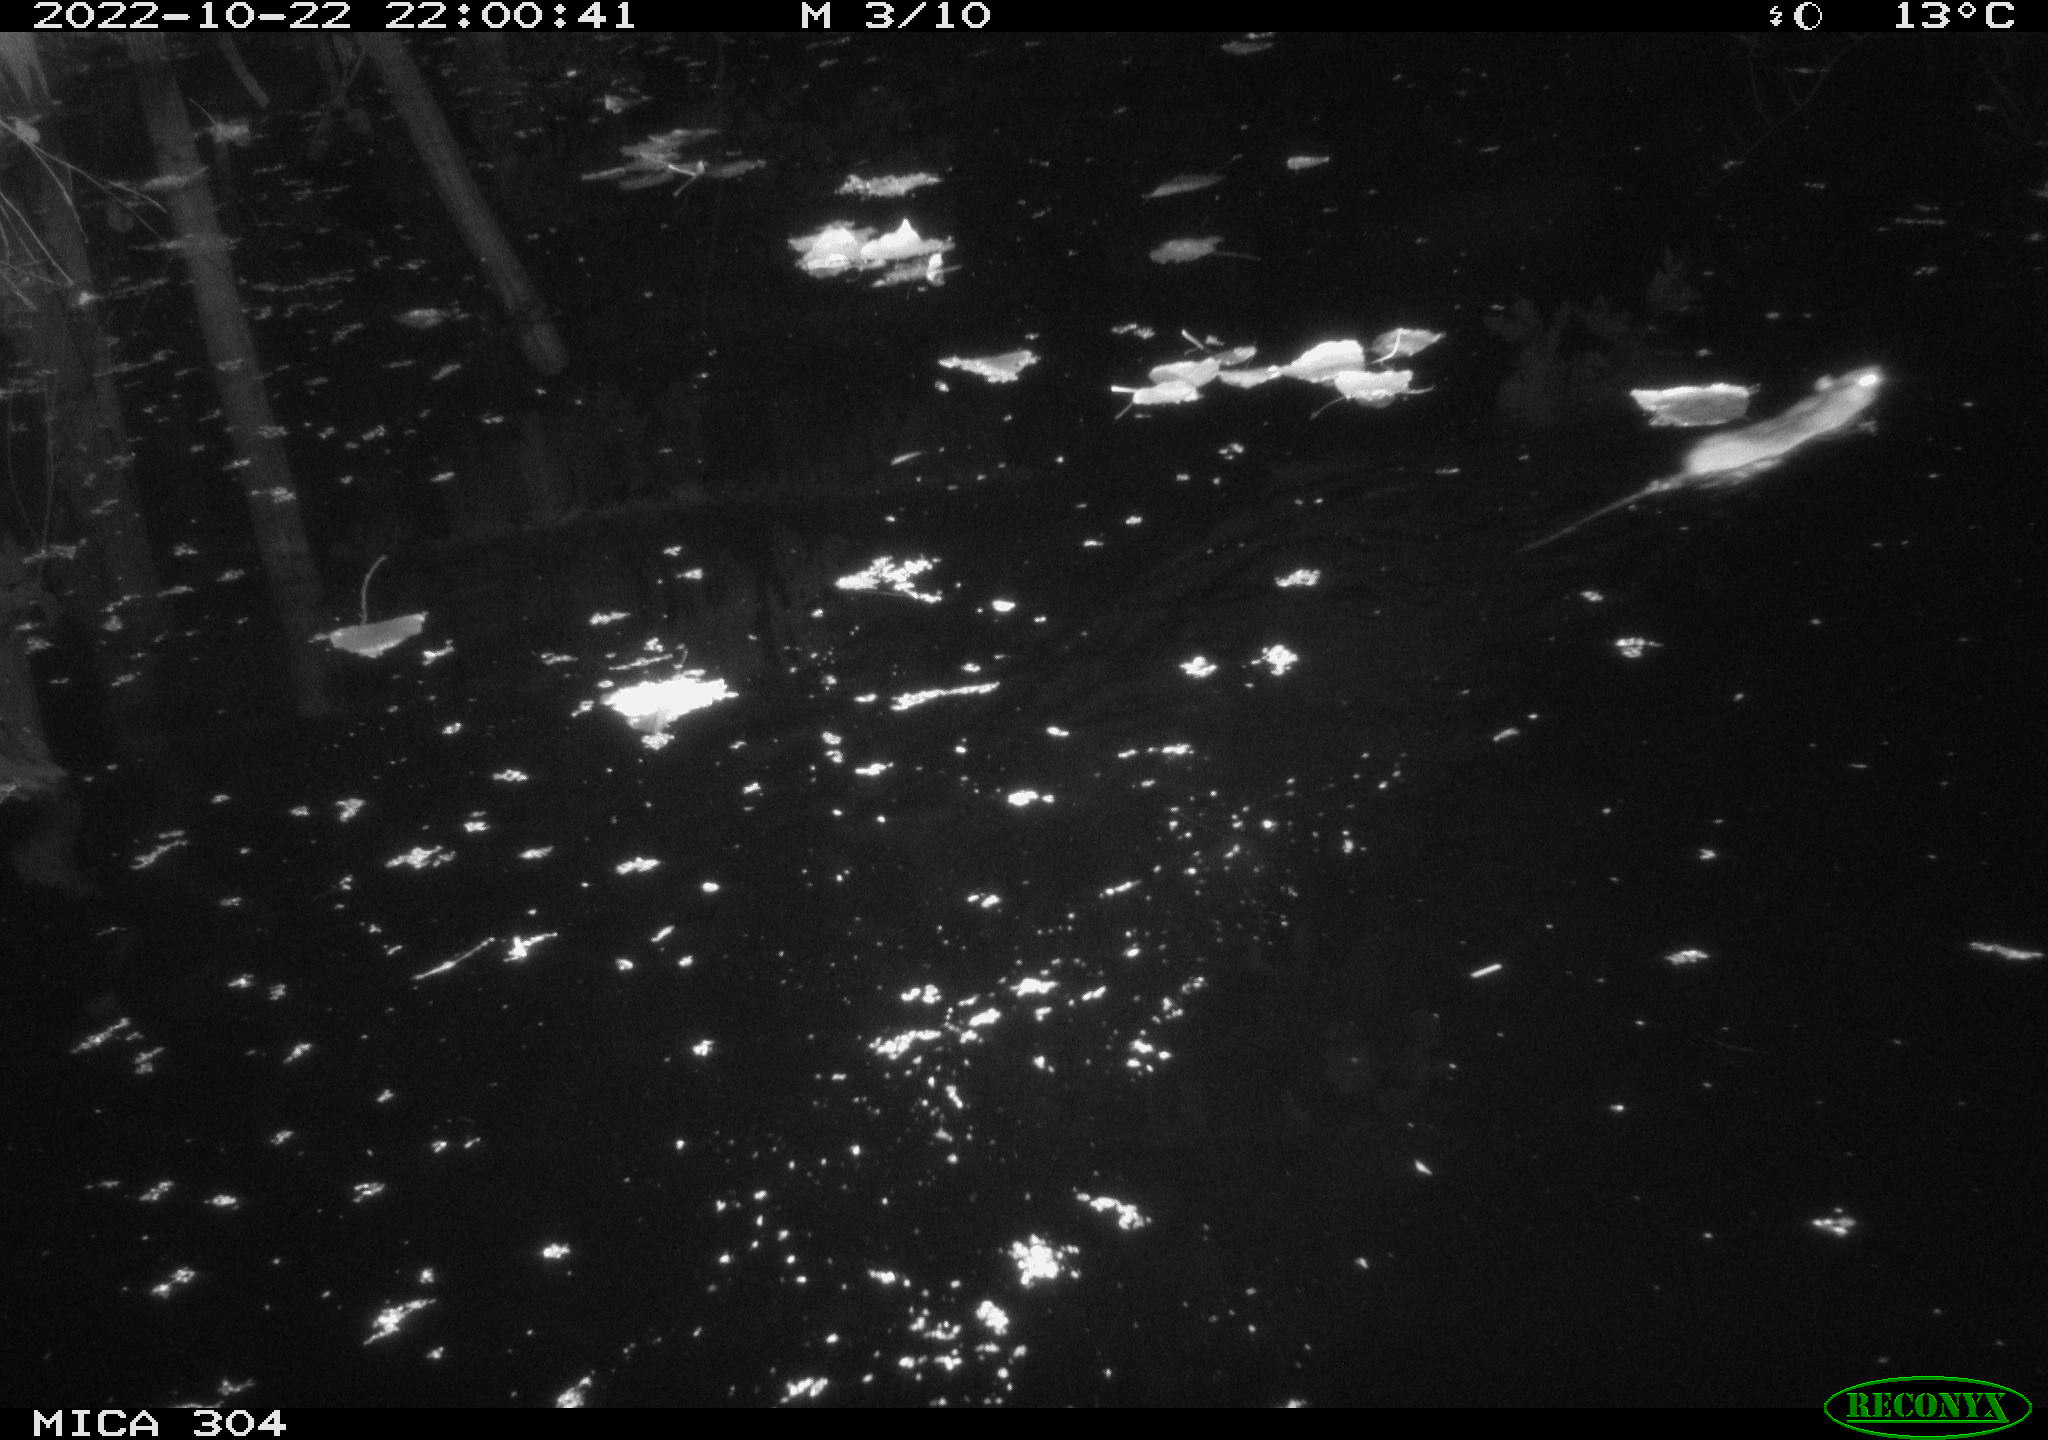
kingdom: Animalia
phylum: Chordata
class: Mammalia
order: Rodentia
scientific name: Rodentia
